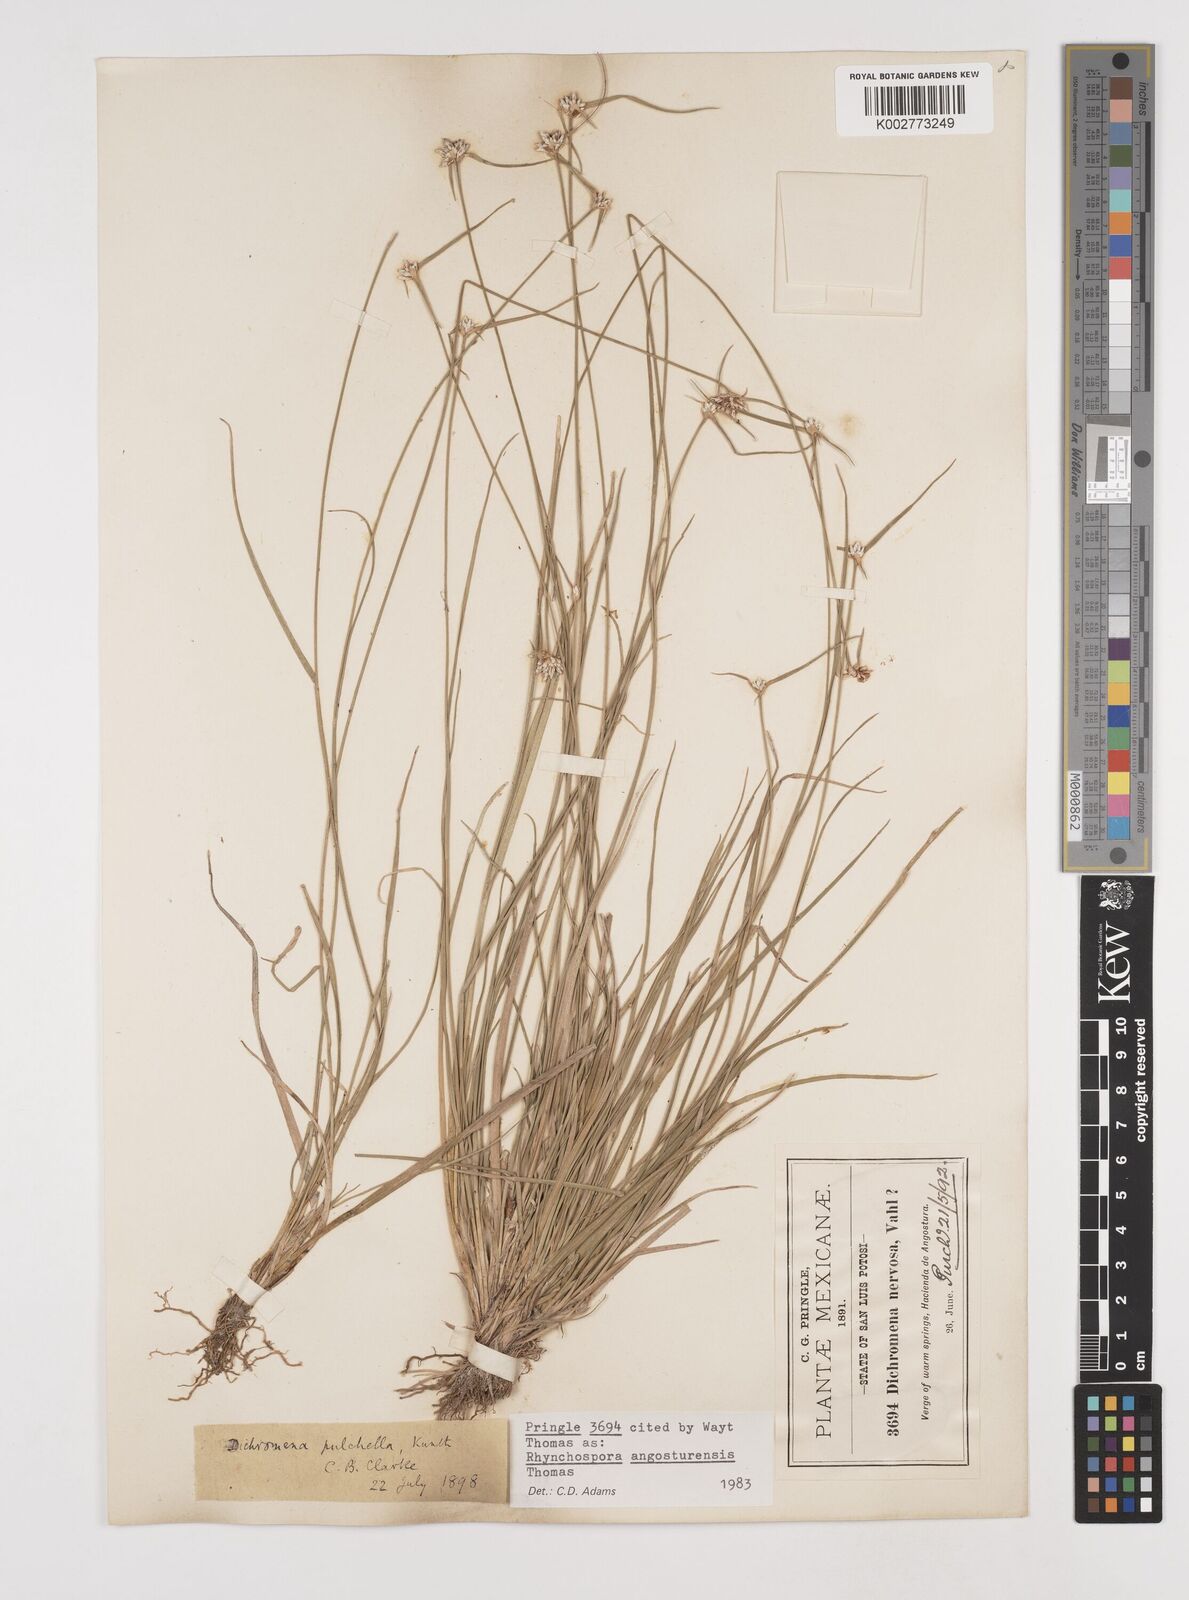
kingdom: Plantae
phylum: Tracheophyta
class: Liliopsida
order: Poales
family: Cyperaceae
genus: Rhynchospora
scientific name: Rhynchospora angosturensis
